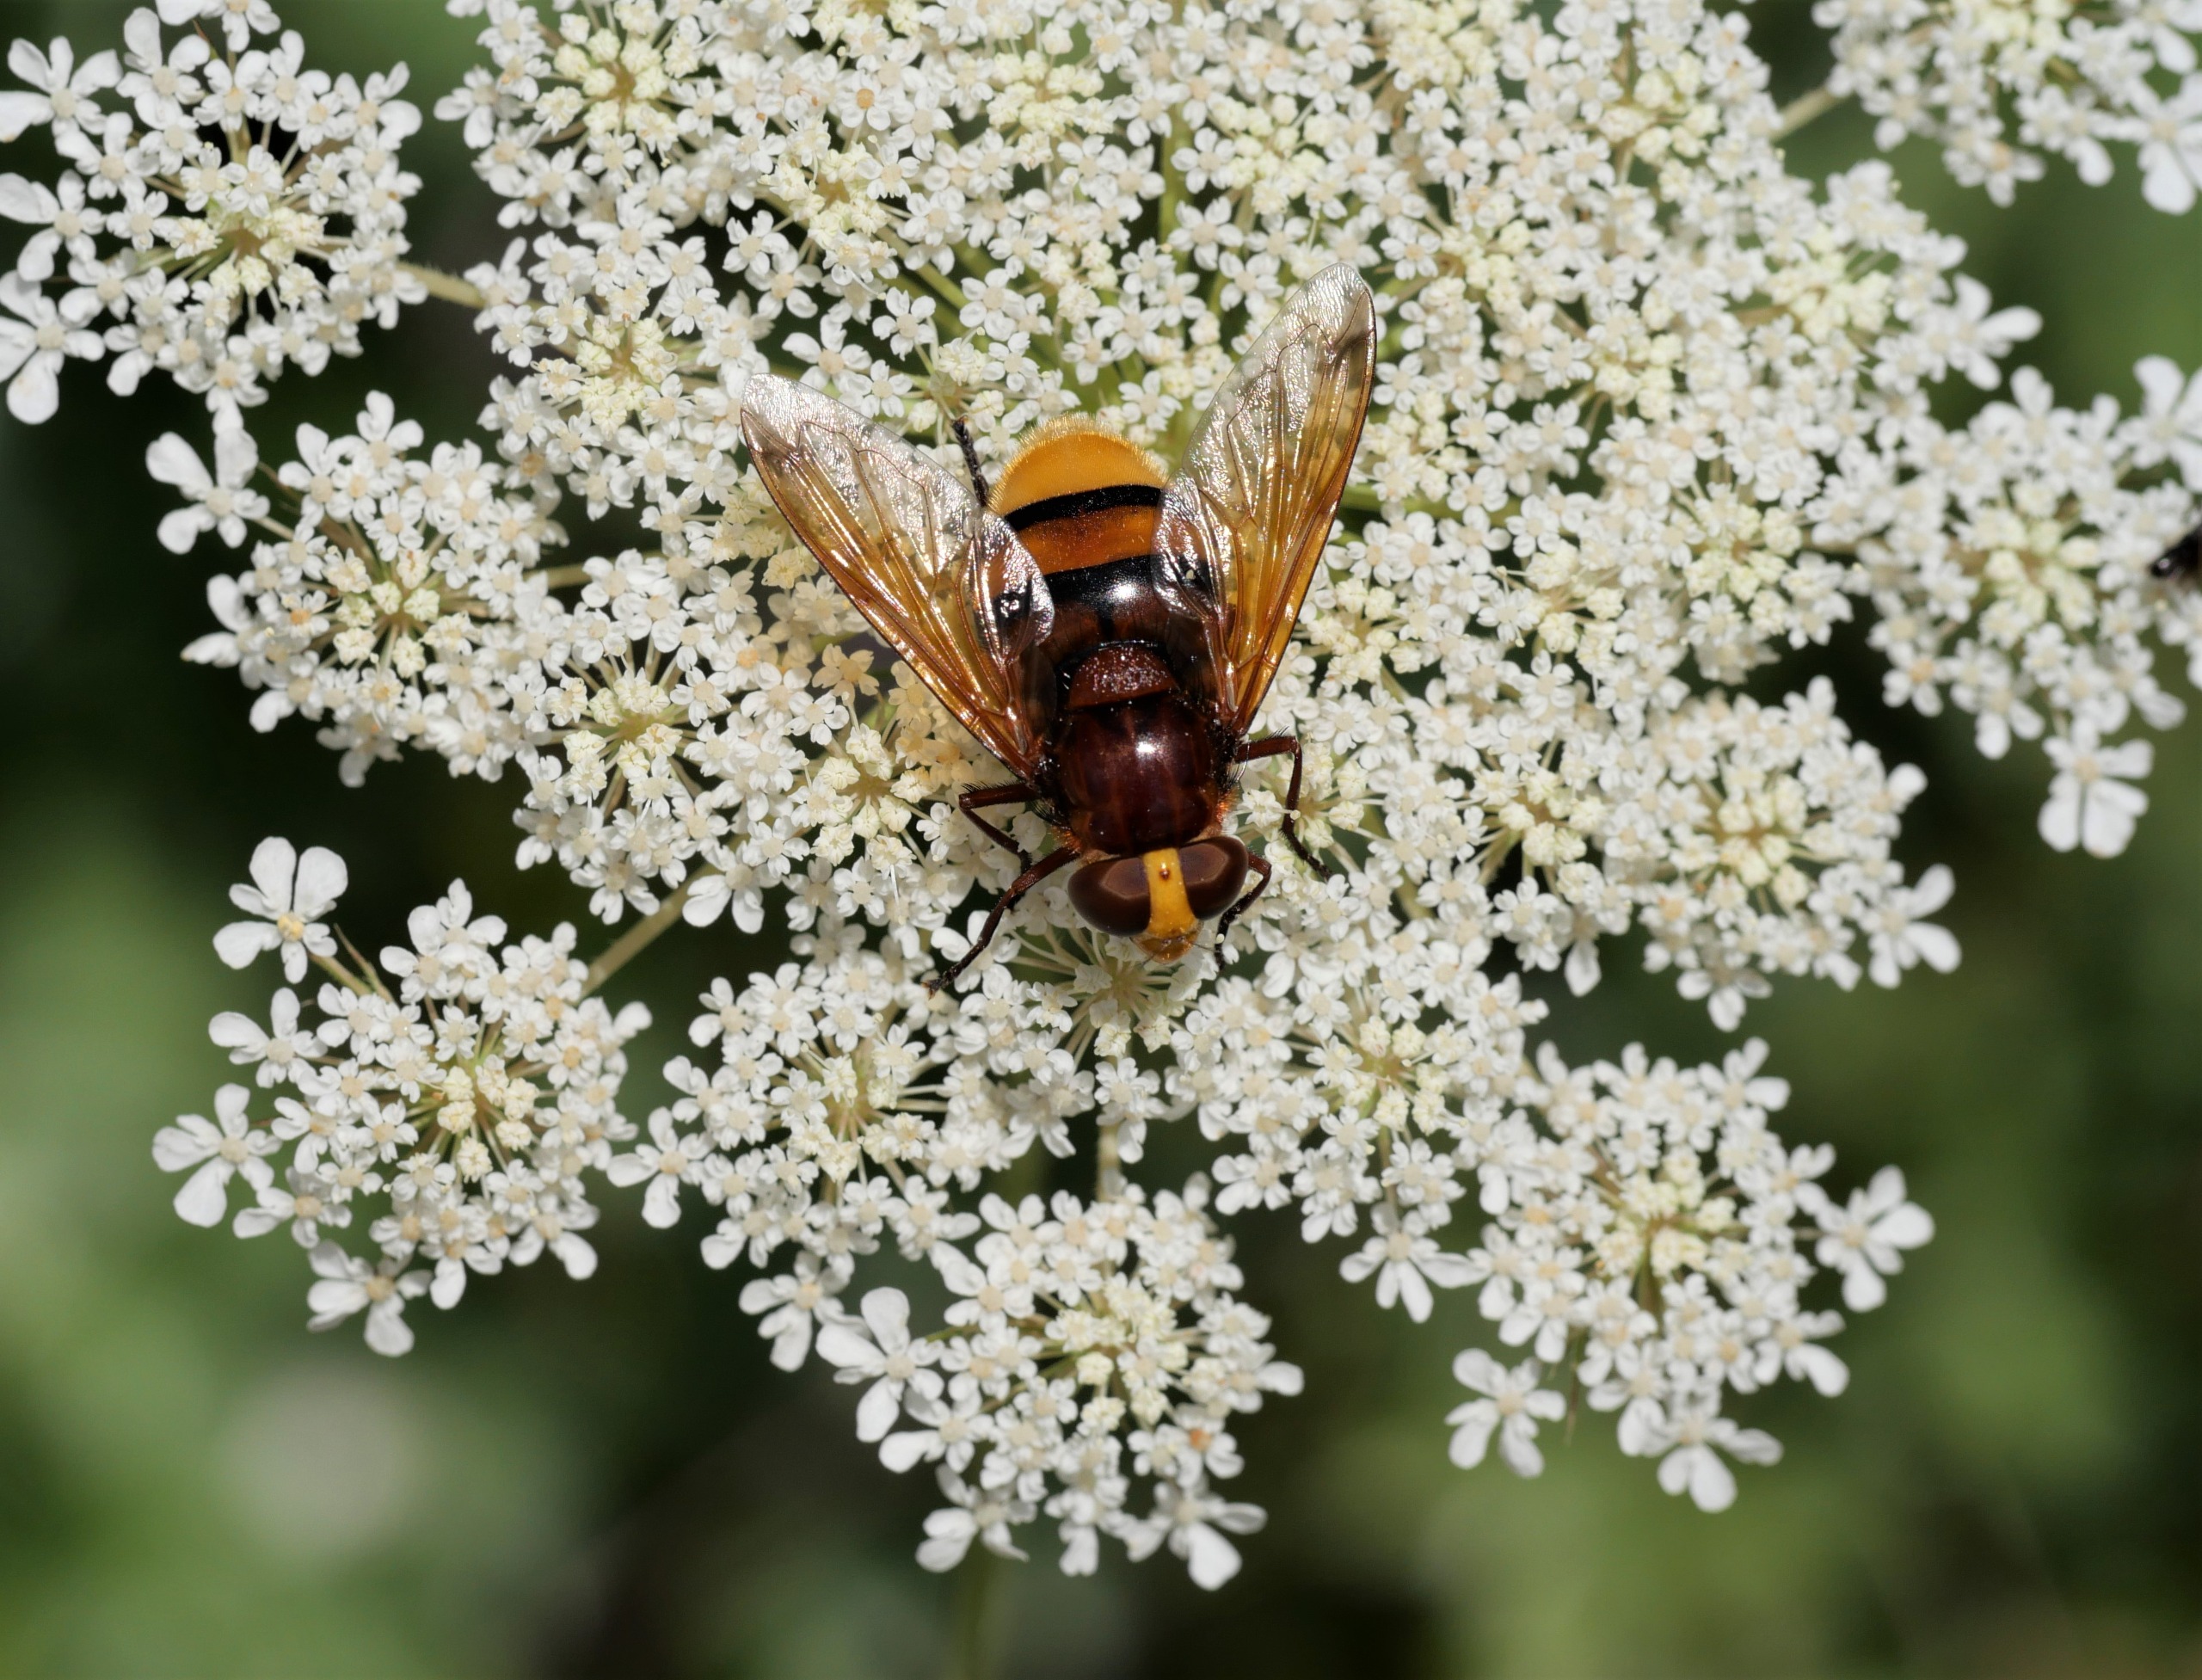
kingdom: Animalia
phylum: Arthropoda
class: Insecta
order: Diptera
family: Syrphidae
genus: Volucella
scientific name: Volucella zonaria
